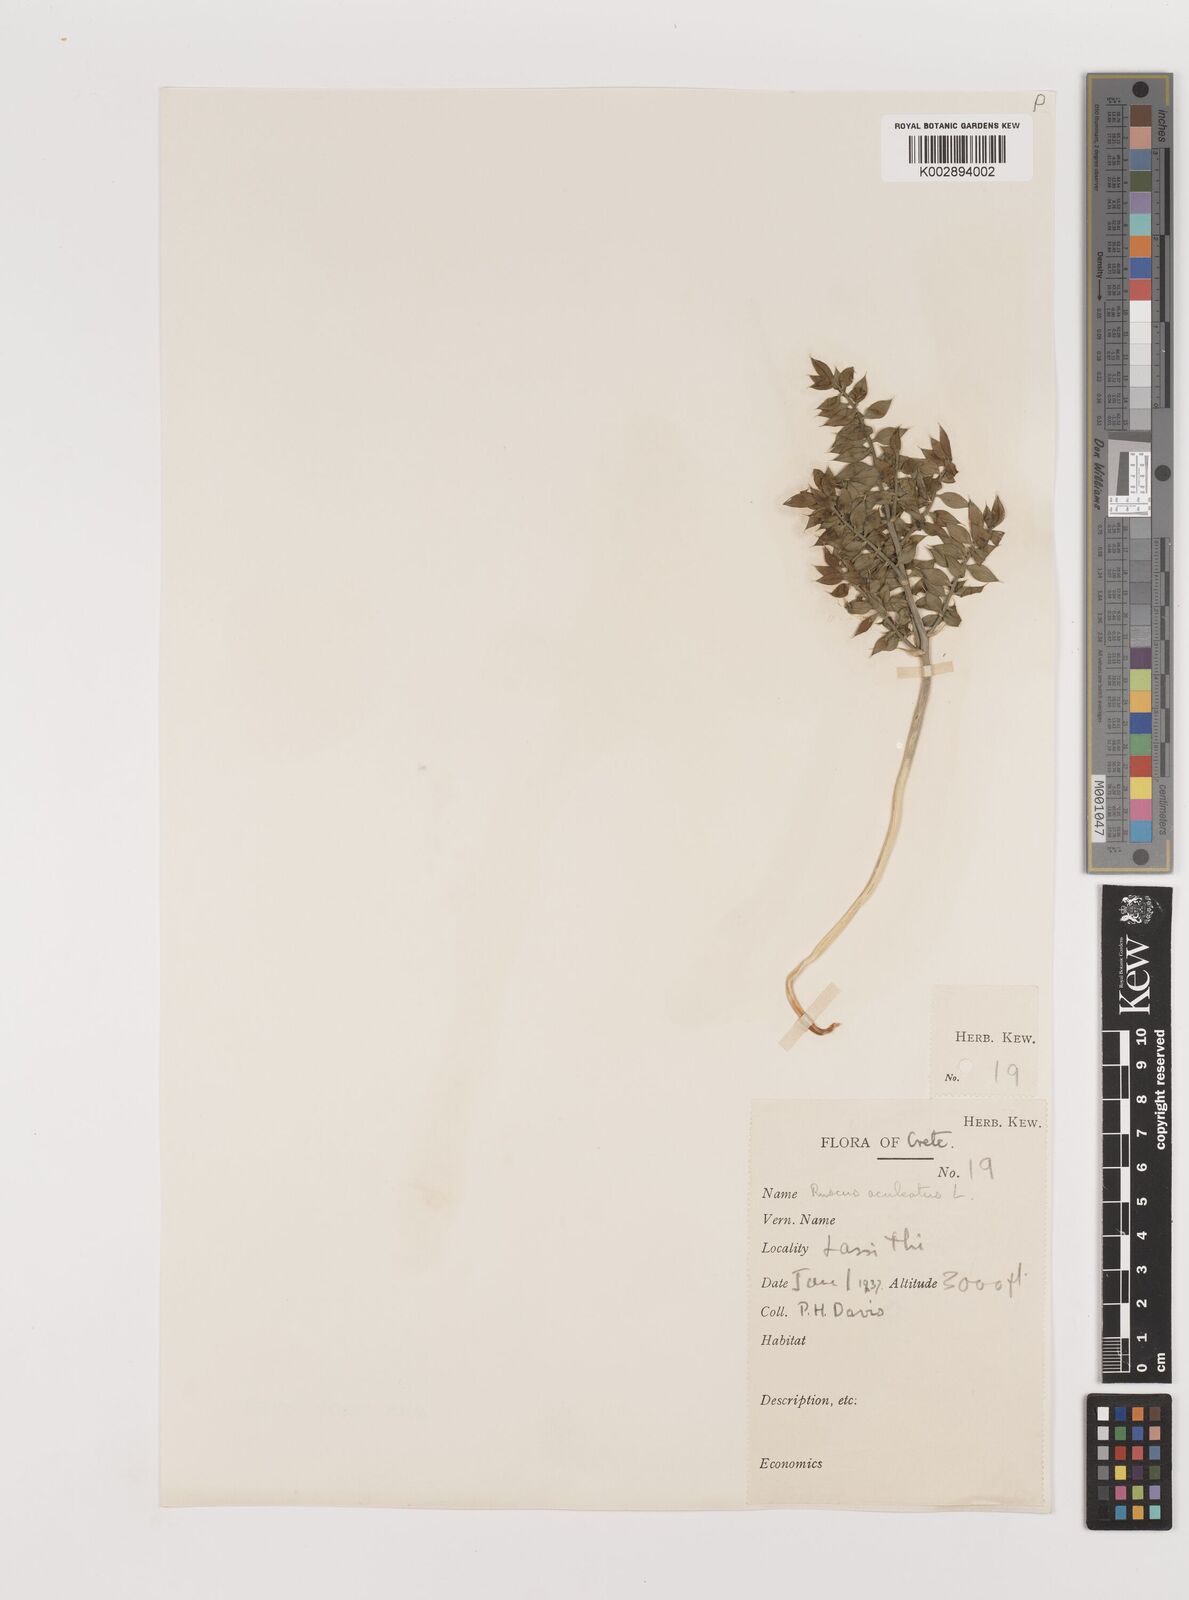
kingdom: Plantae
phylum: Tracheophyta
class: Liliopsida
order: Asparagales
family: Asparagaceae
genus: Ruscus
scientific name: Ruscus aculeatus
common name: Butcher's-broom
